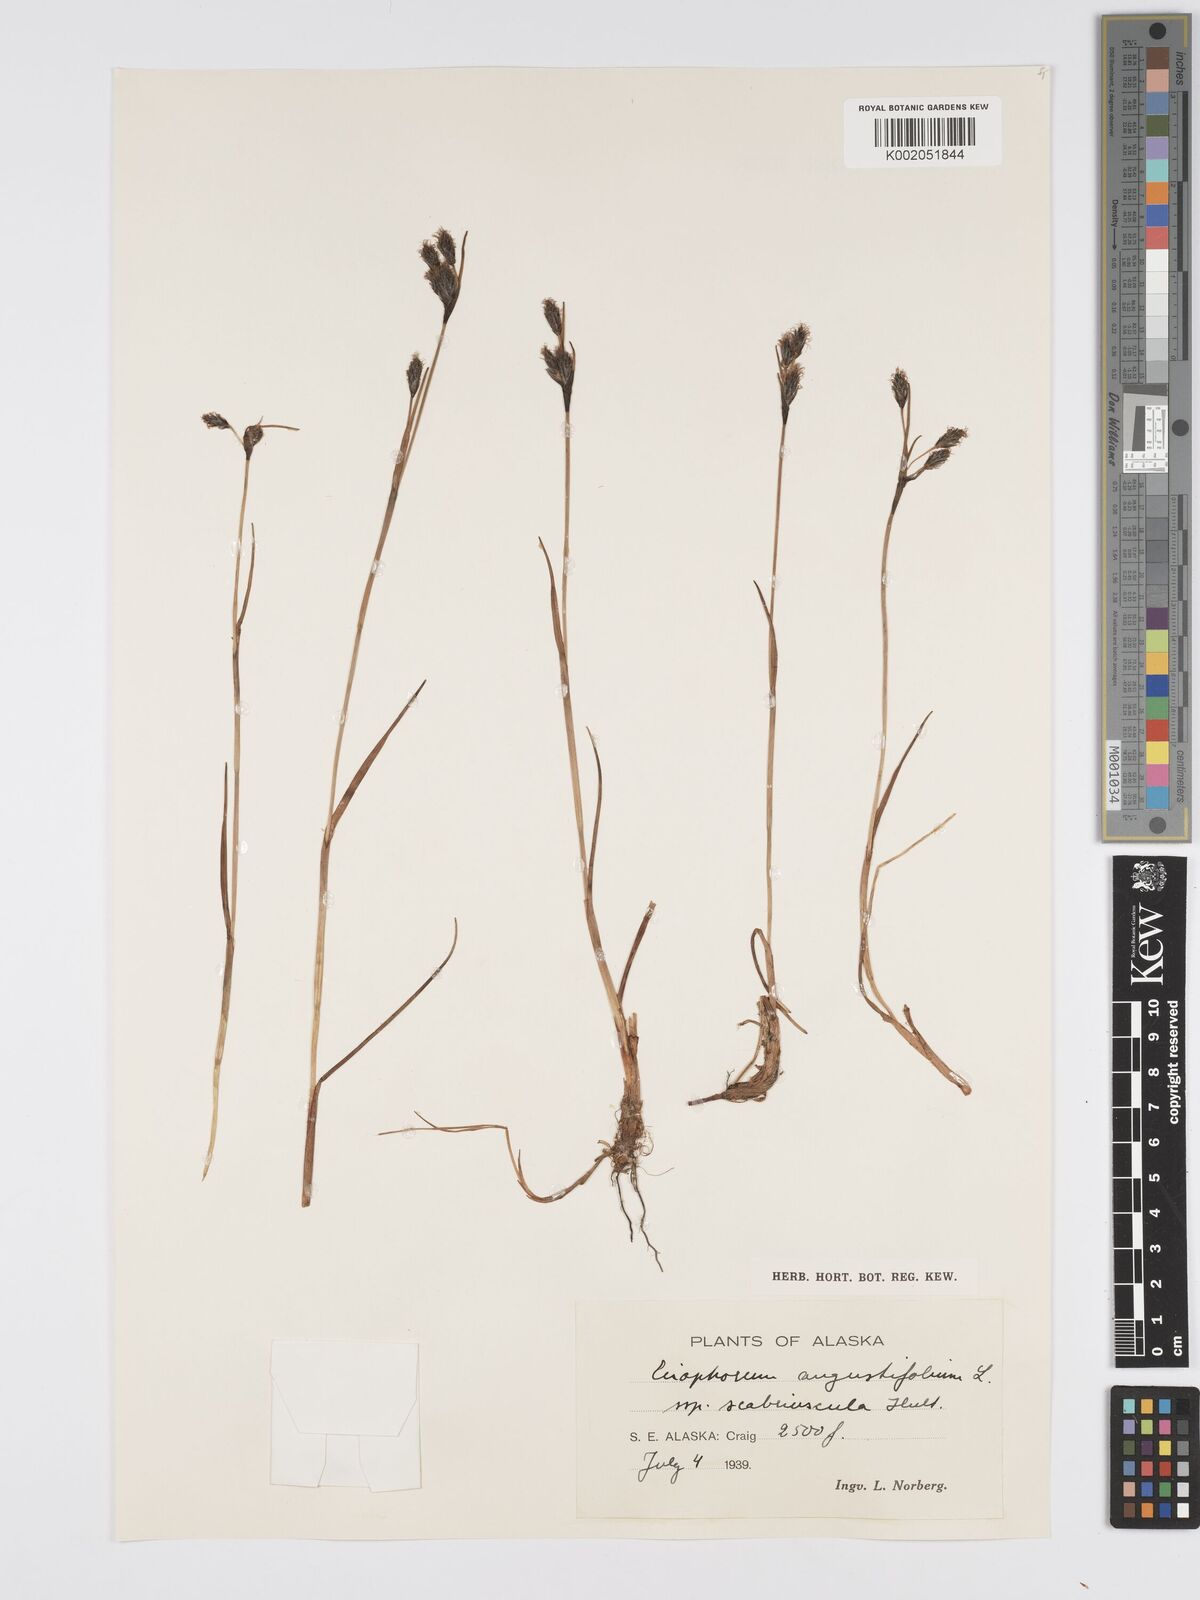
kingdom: Plantae
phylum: Tracheophyta
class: Liliopsida
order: Poales
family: Cyperaceae
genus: Eriophorum
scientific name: Eriophorum angustifolium
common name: Common cottongrass
